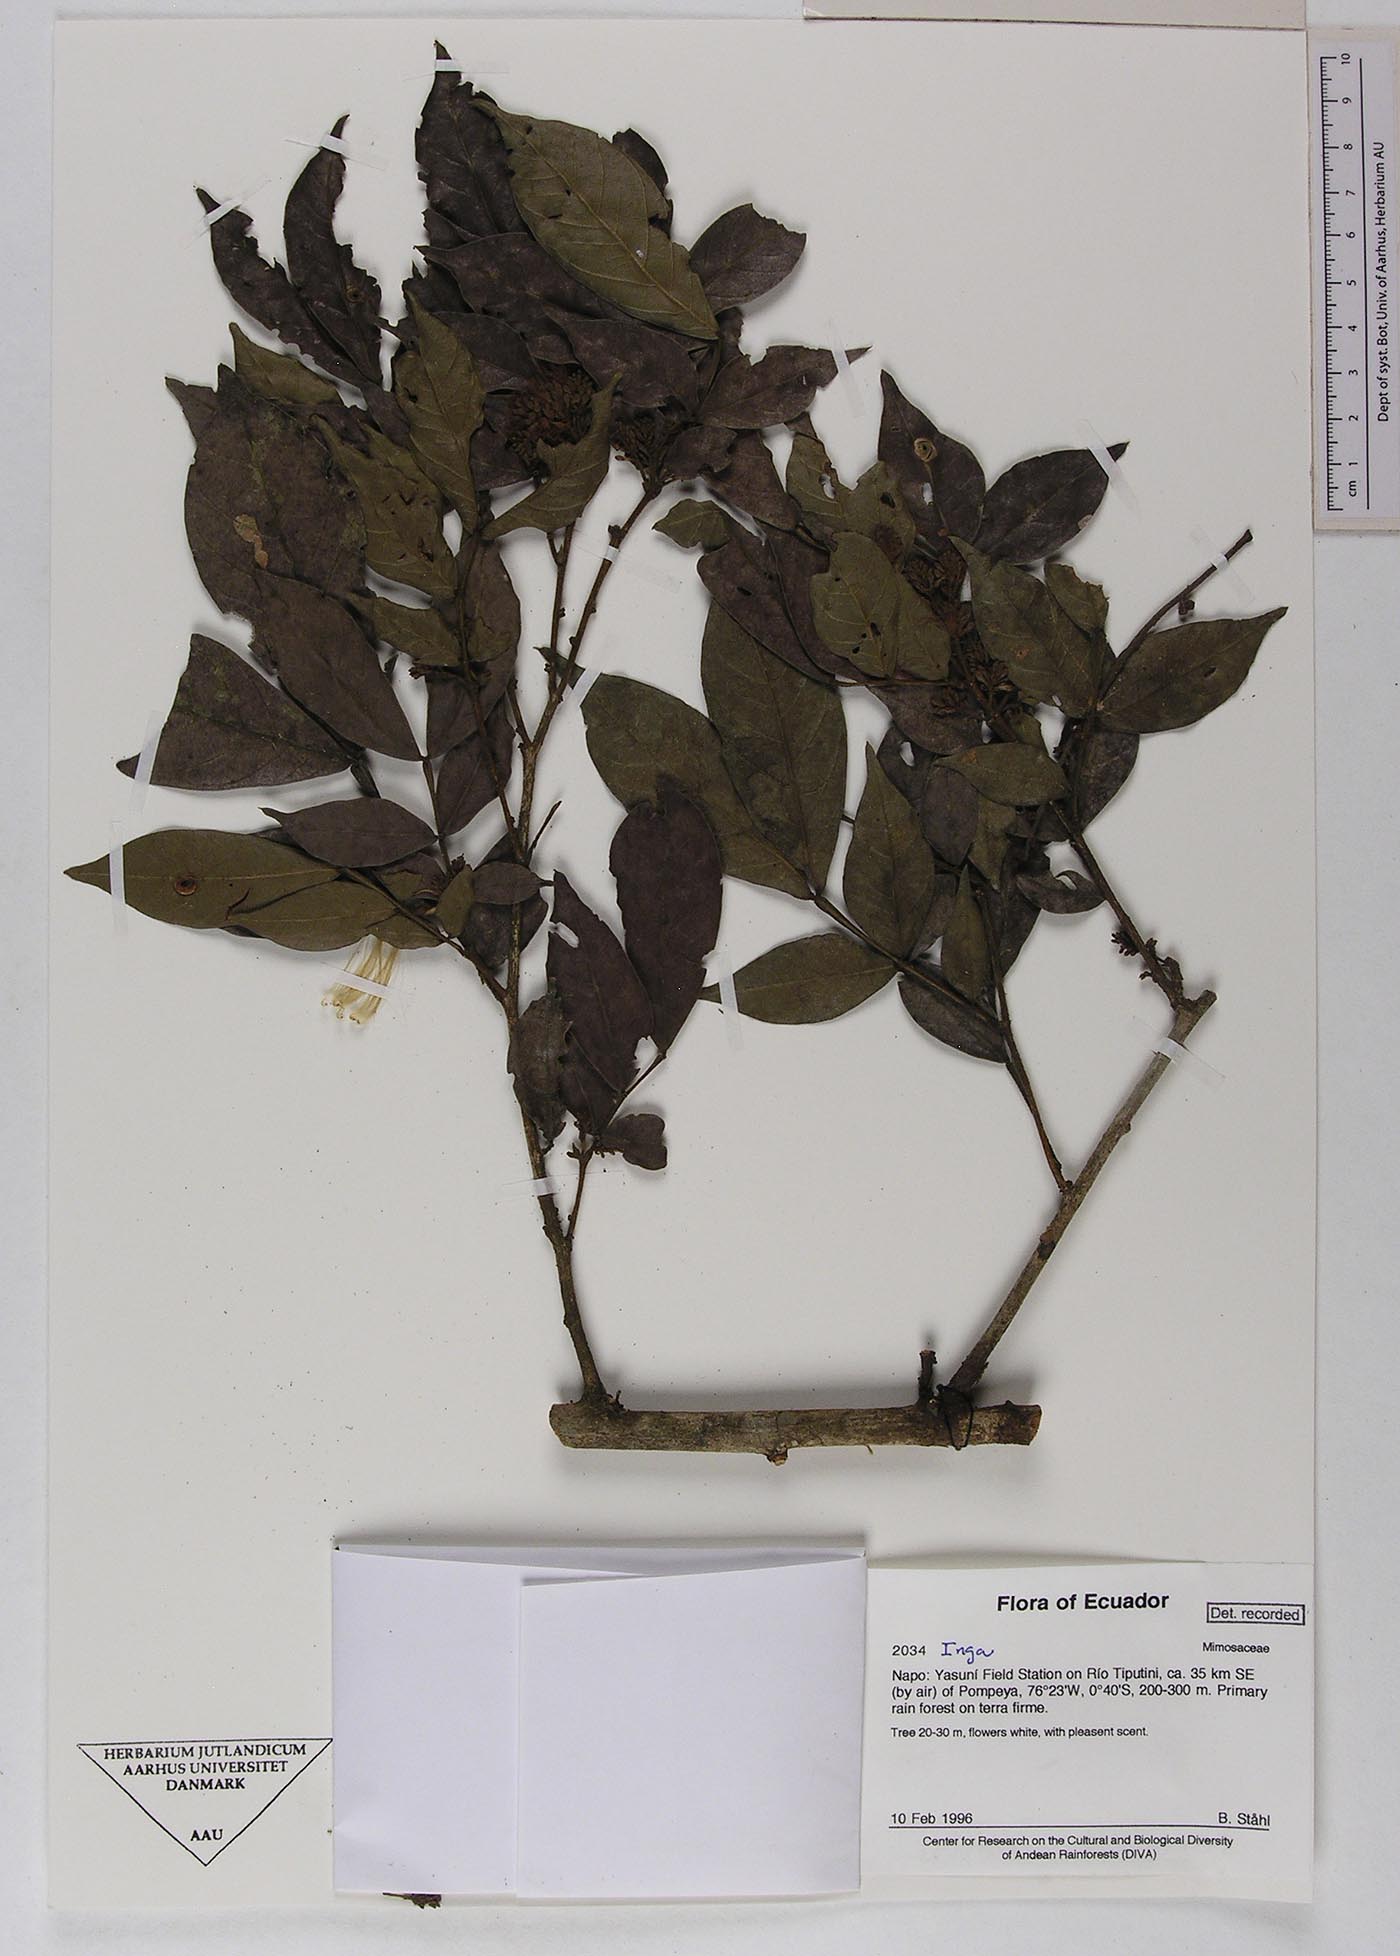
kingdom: Plantae
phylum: Tracheophyta
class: Magnoliopsida
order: Fabales
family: Fabaceae
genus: Inga
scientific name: Inga
